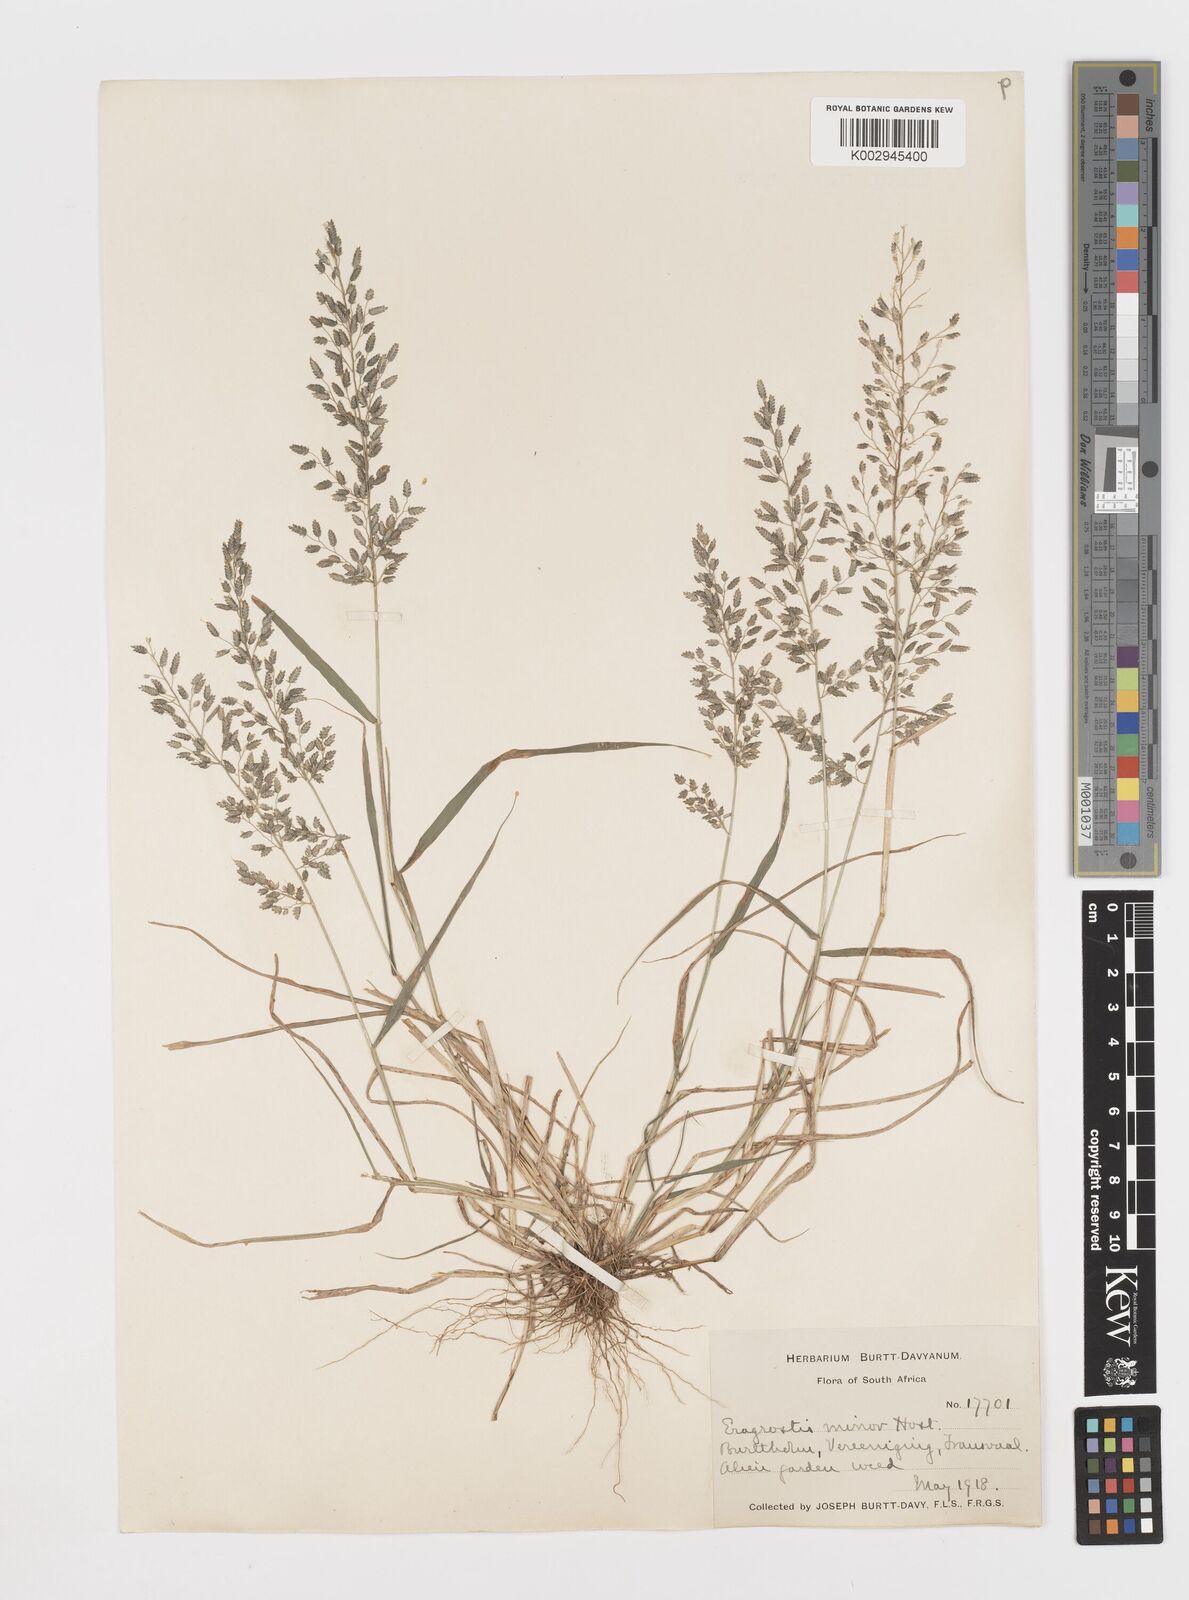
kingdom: Plantae
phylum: Tracheophyta
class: Liliopsida
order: Poales
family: Poaceae
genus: Eragrostis
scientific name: Eragrostis cilianensis
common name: Stinkgrass
